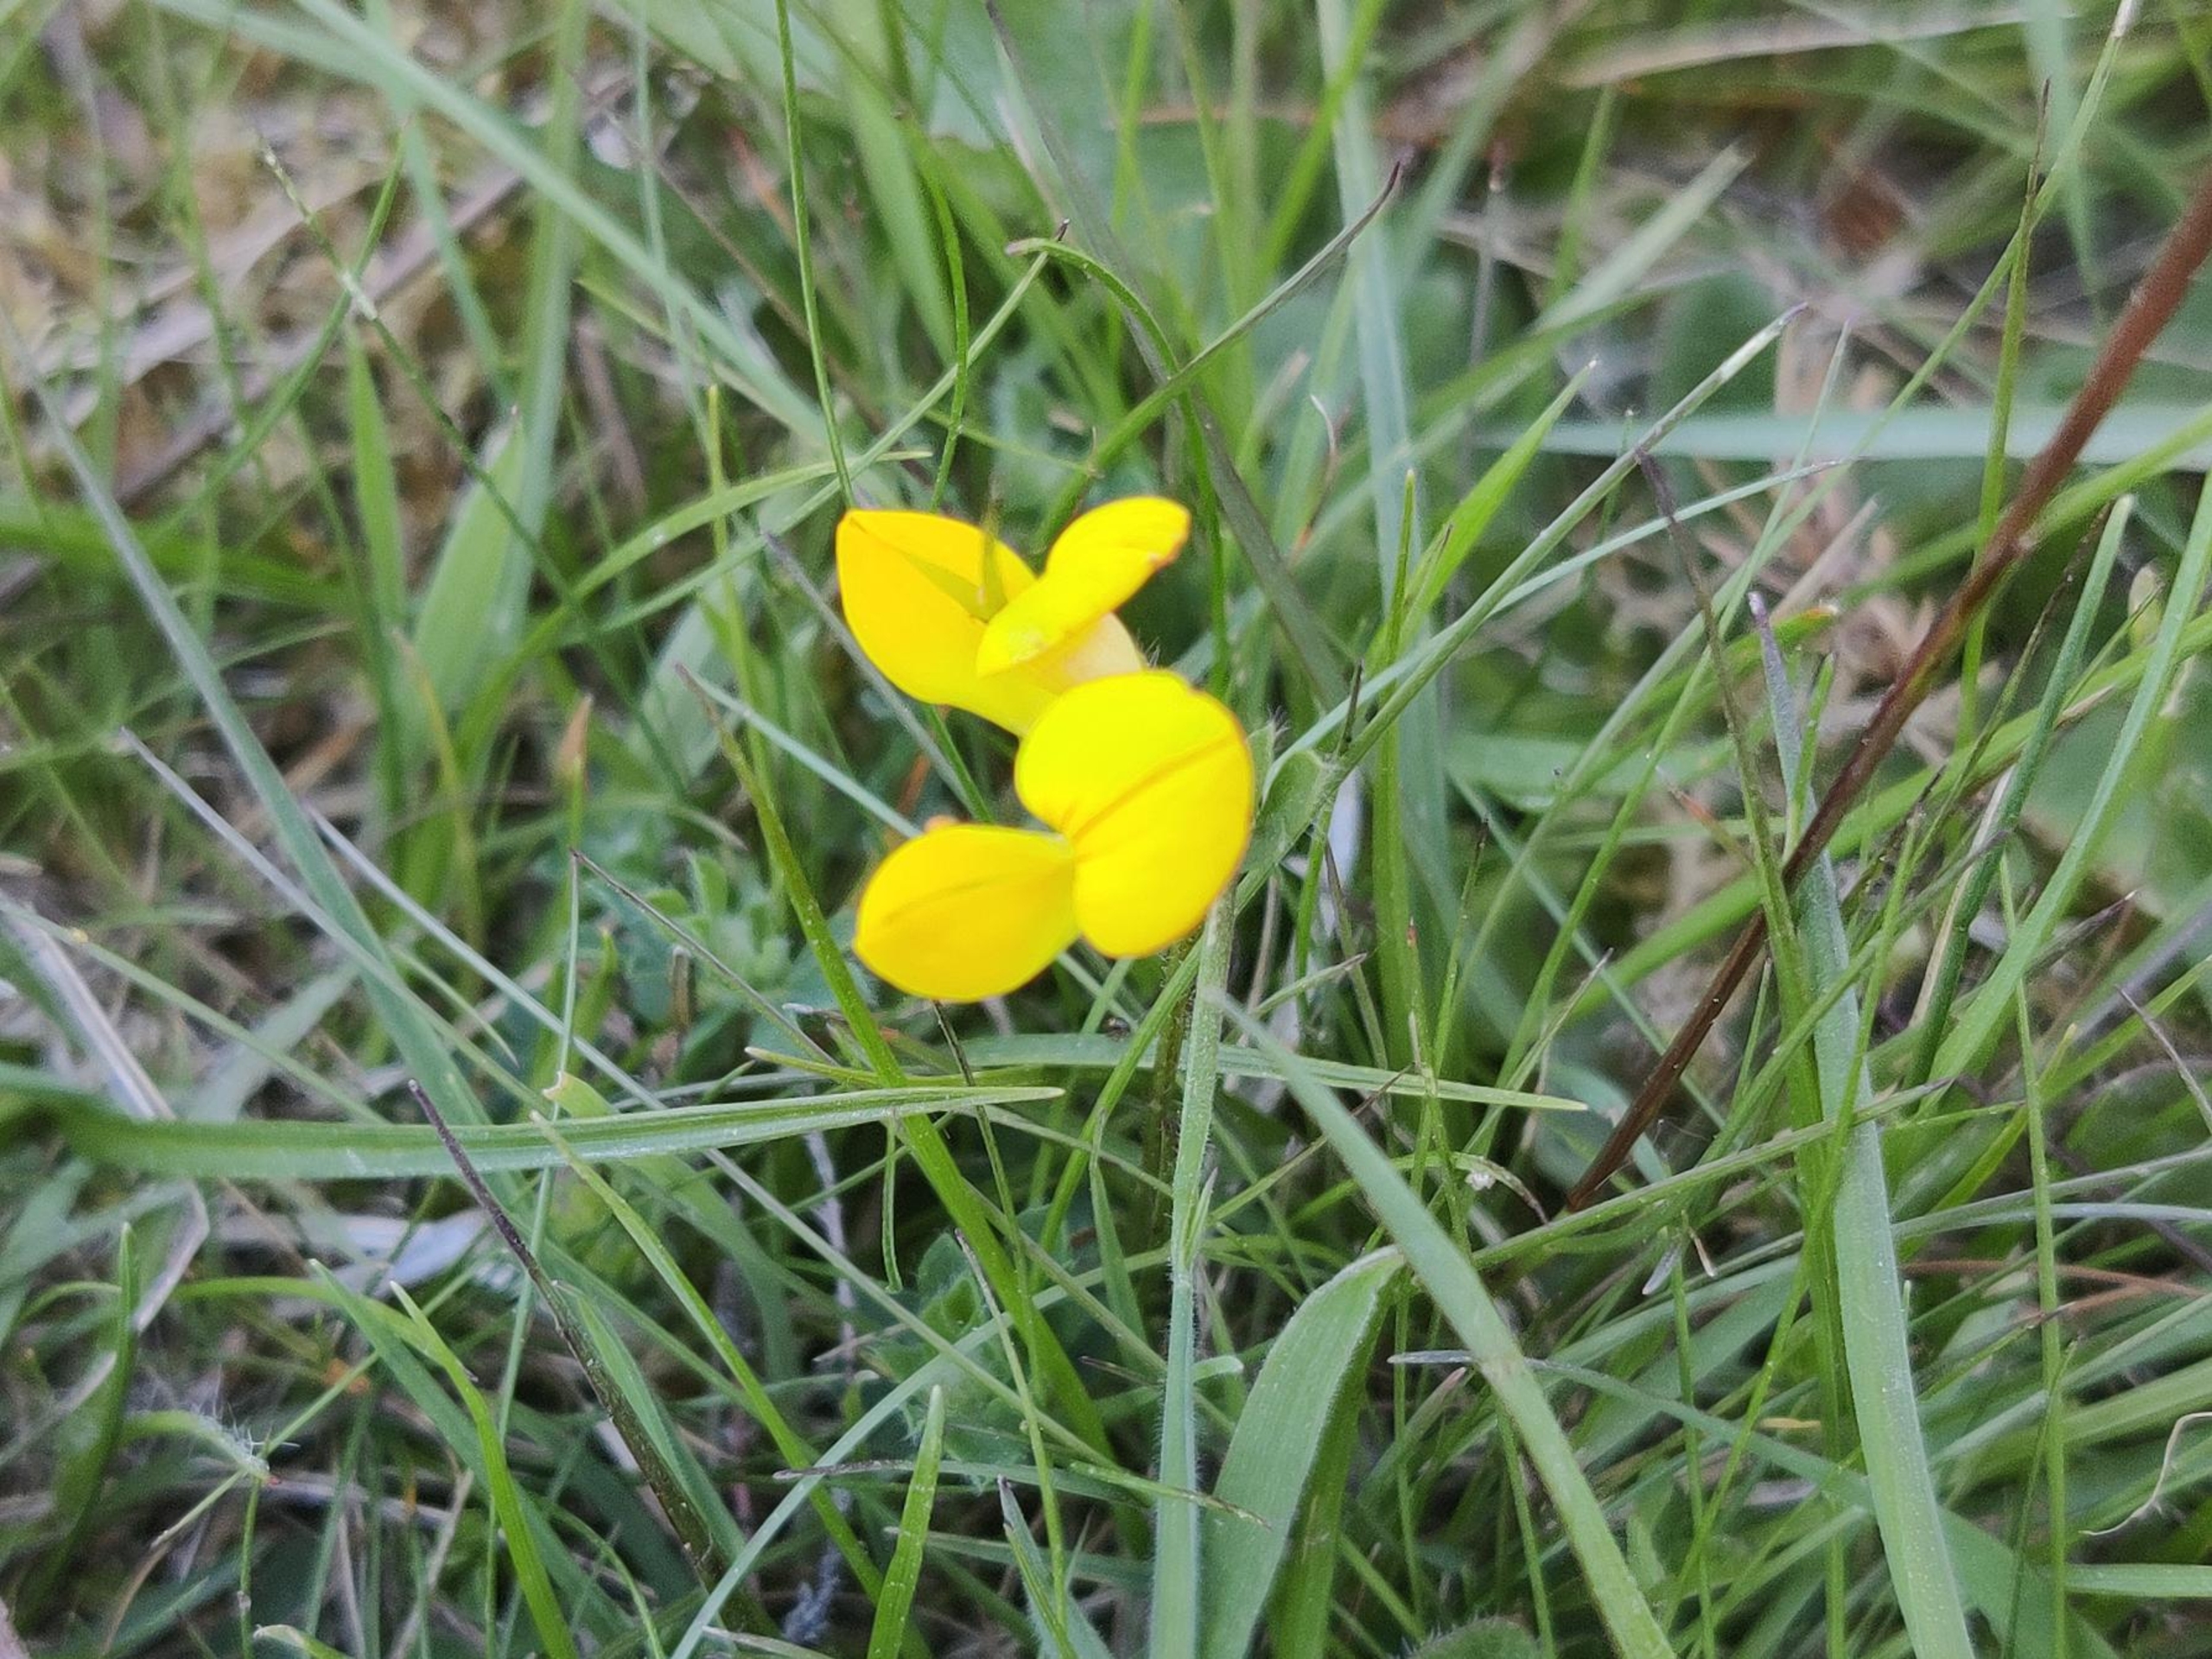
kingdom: Plantae
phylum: Tracheophyta
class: Magnoliopsida
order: Fabales
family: Fabaceae
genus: Lotus
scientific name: Lotus corniculatus
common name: Almindelig kællingetand
